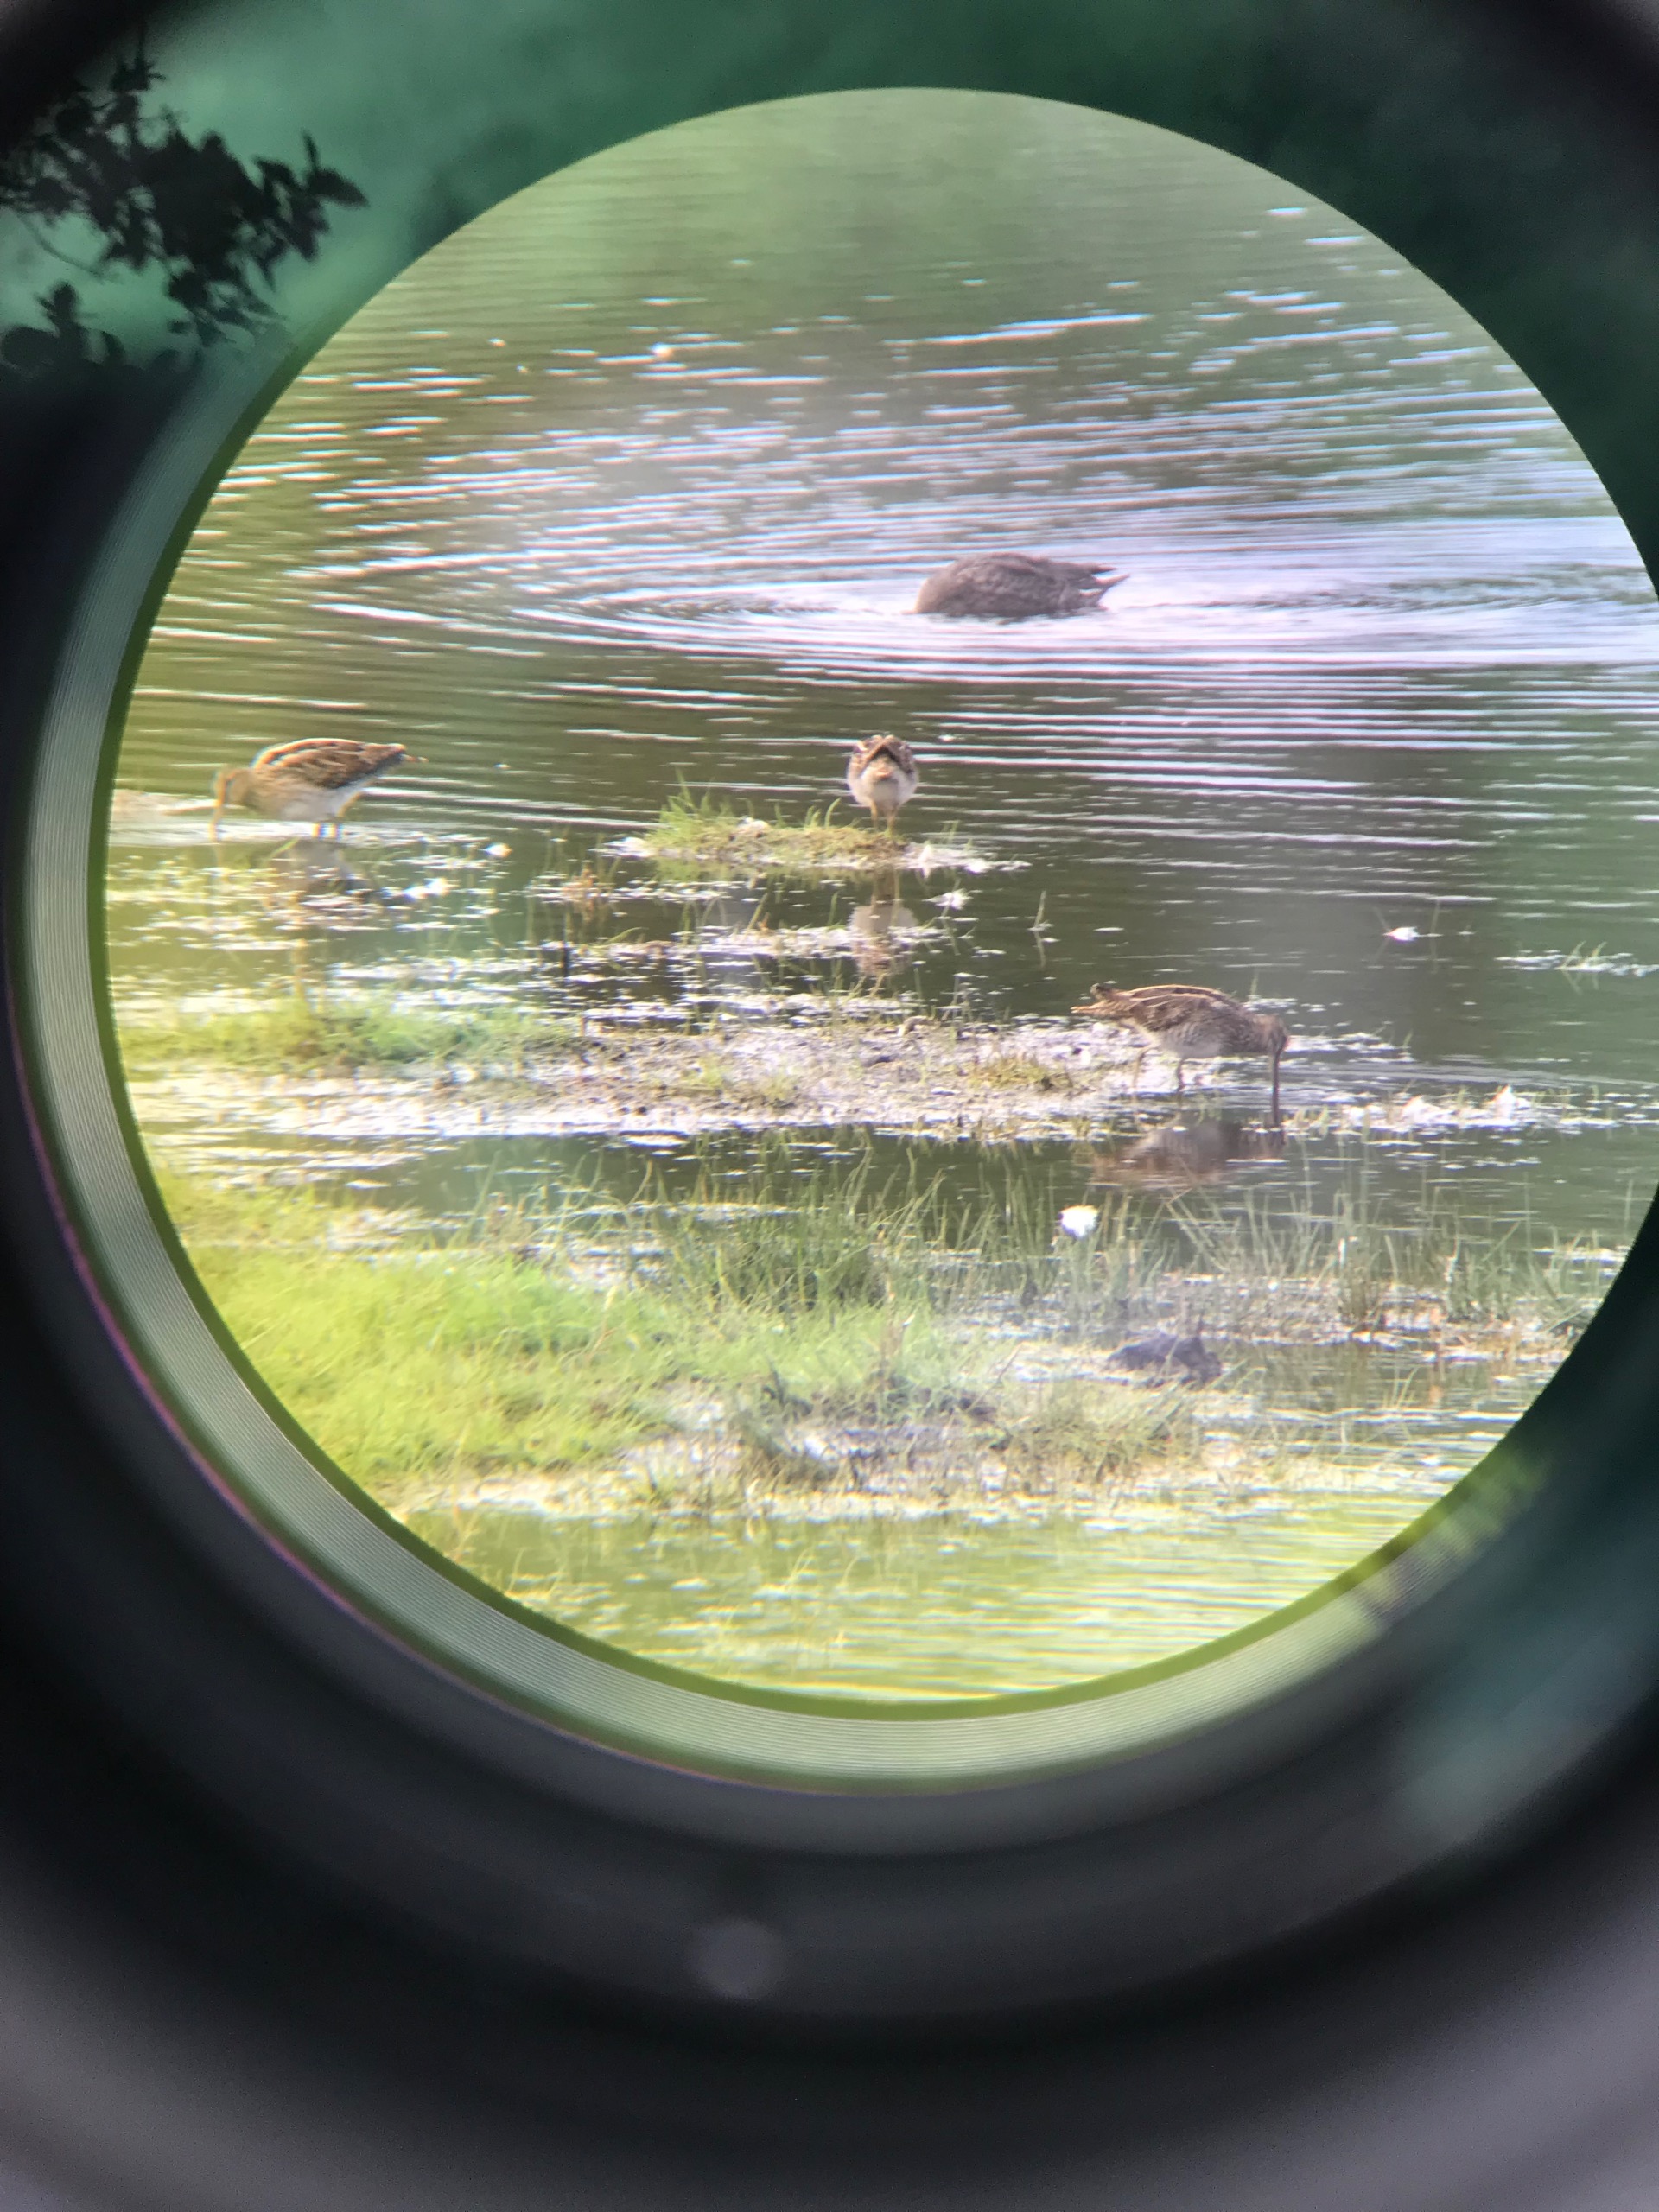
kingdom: Animalia
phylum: Chordata
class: Aves
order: Charadriiformes
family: Scolopacidae
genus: Gallinago
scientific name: Gallinago gallinago
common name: Dobbeltbekkasin
